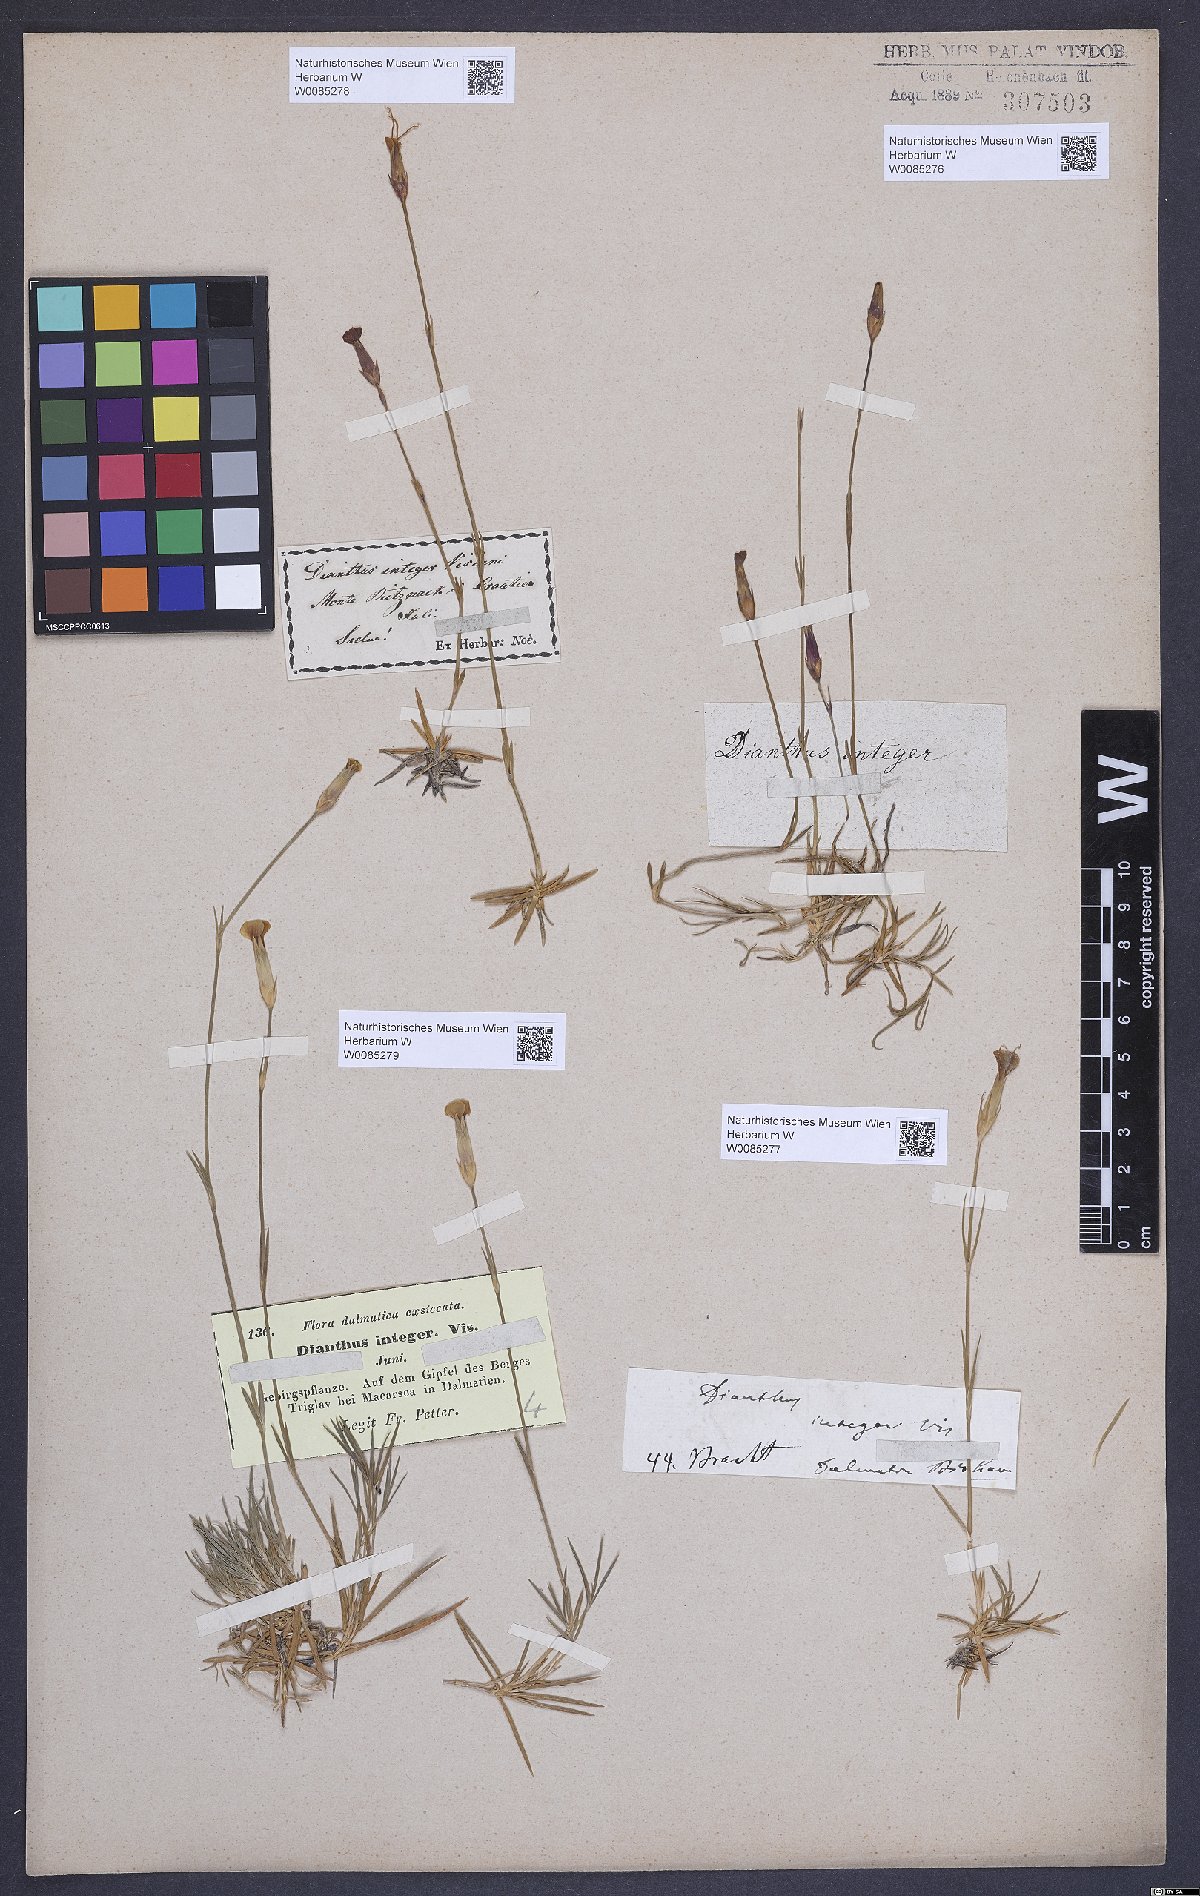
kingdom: Plantae
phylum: Tracheophyta
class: Magnoliopsida
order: Caryophyllales
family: Caryophyllaceae
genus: Dianthus
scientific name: Dianthus petraeus
